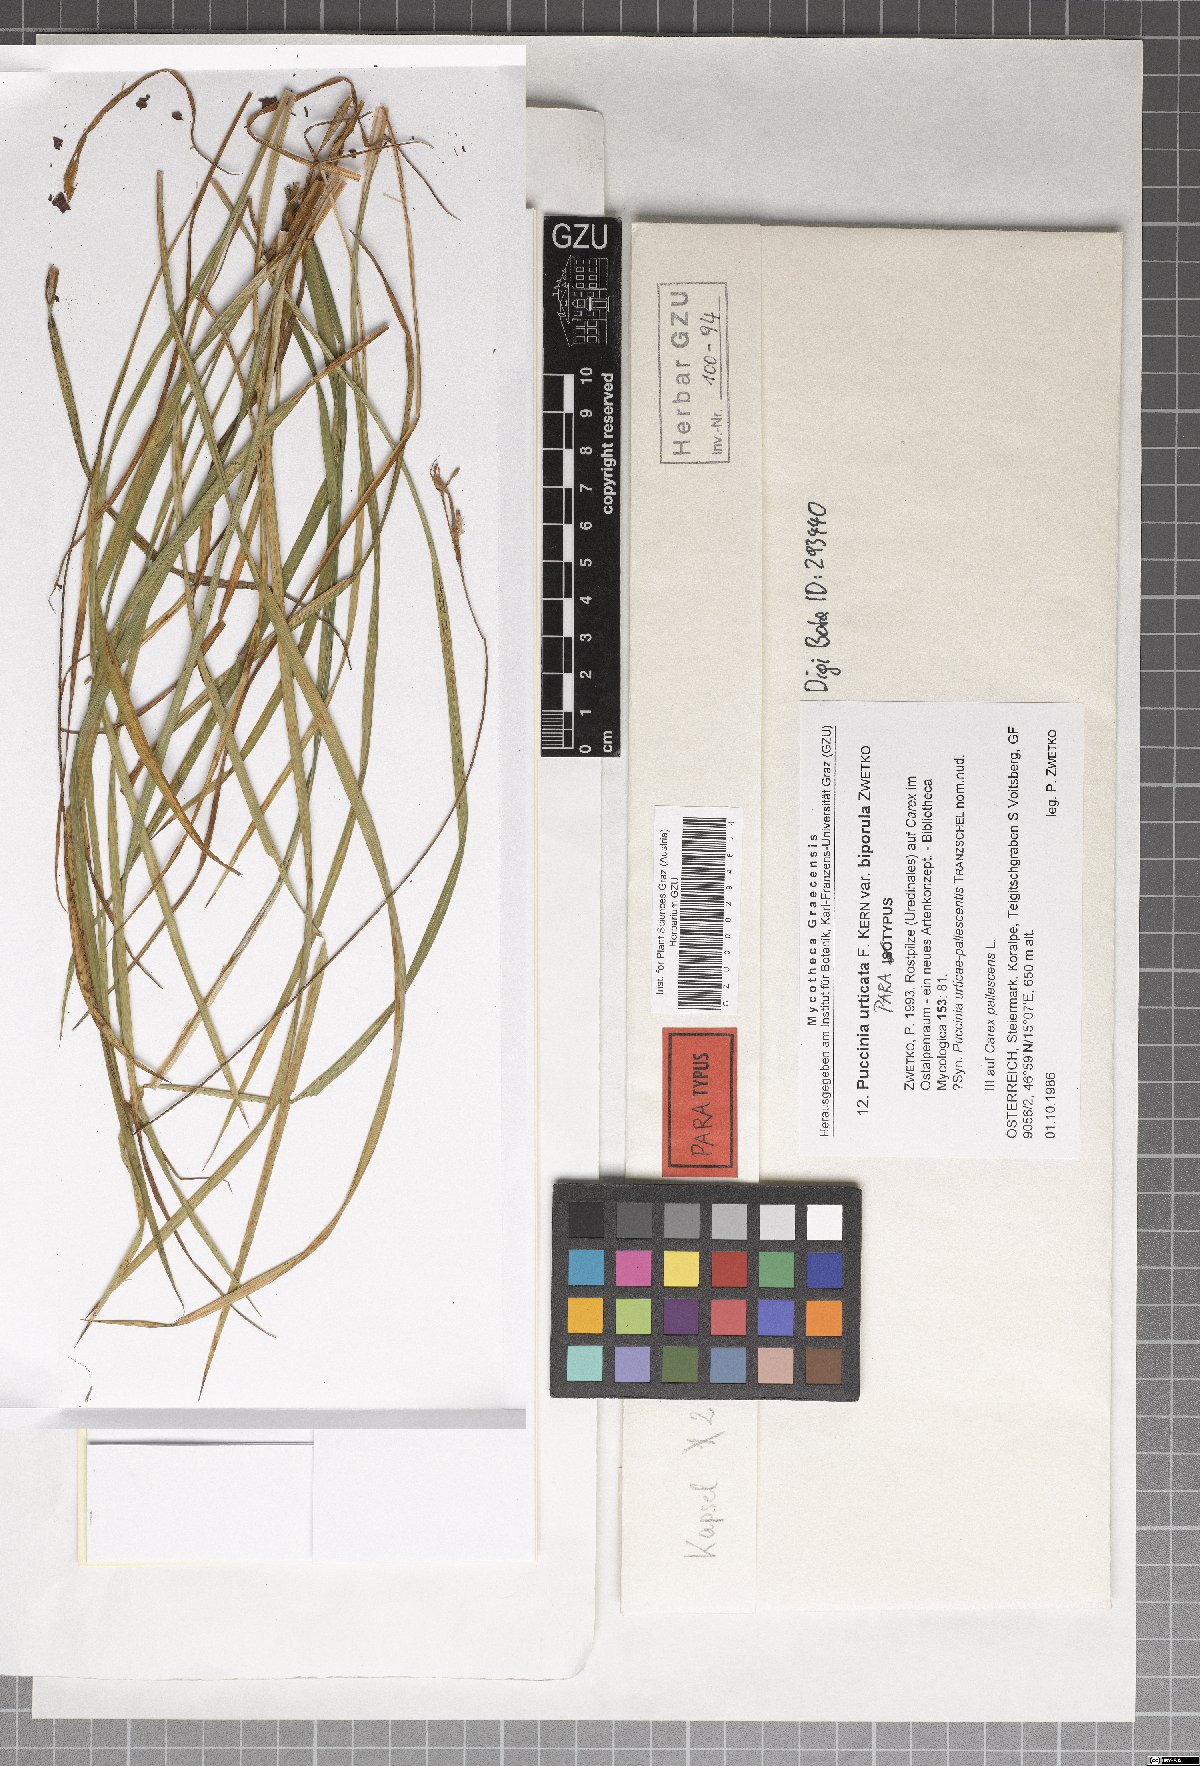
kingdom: Fungi
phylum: Basidiomycota
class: Pucciniomycetes
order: Pucciniales
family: Pucciniaceae
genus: Puccinia
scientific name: Puccinia biporospora
